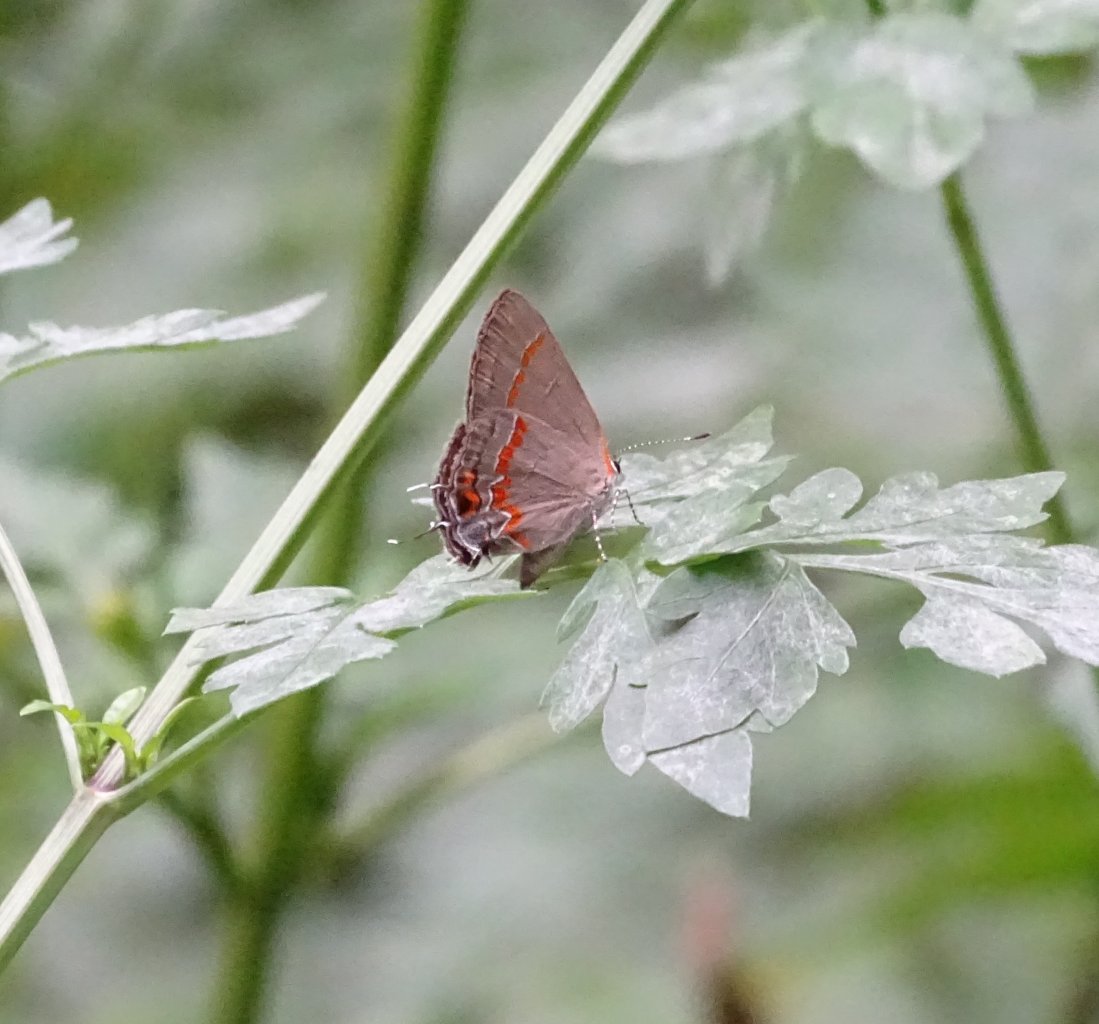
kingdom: Animalia
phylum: Arthropoda
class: Insecta
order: Lepidoptera
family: Lycaenidae
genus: Calycopis
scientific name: Calycopis cecrops
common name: Red-banded Hairstreak
